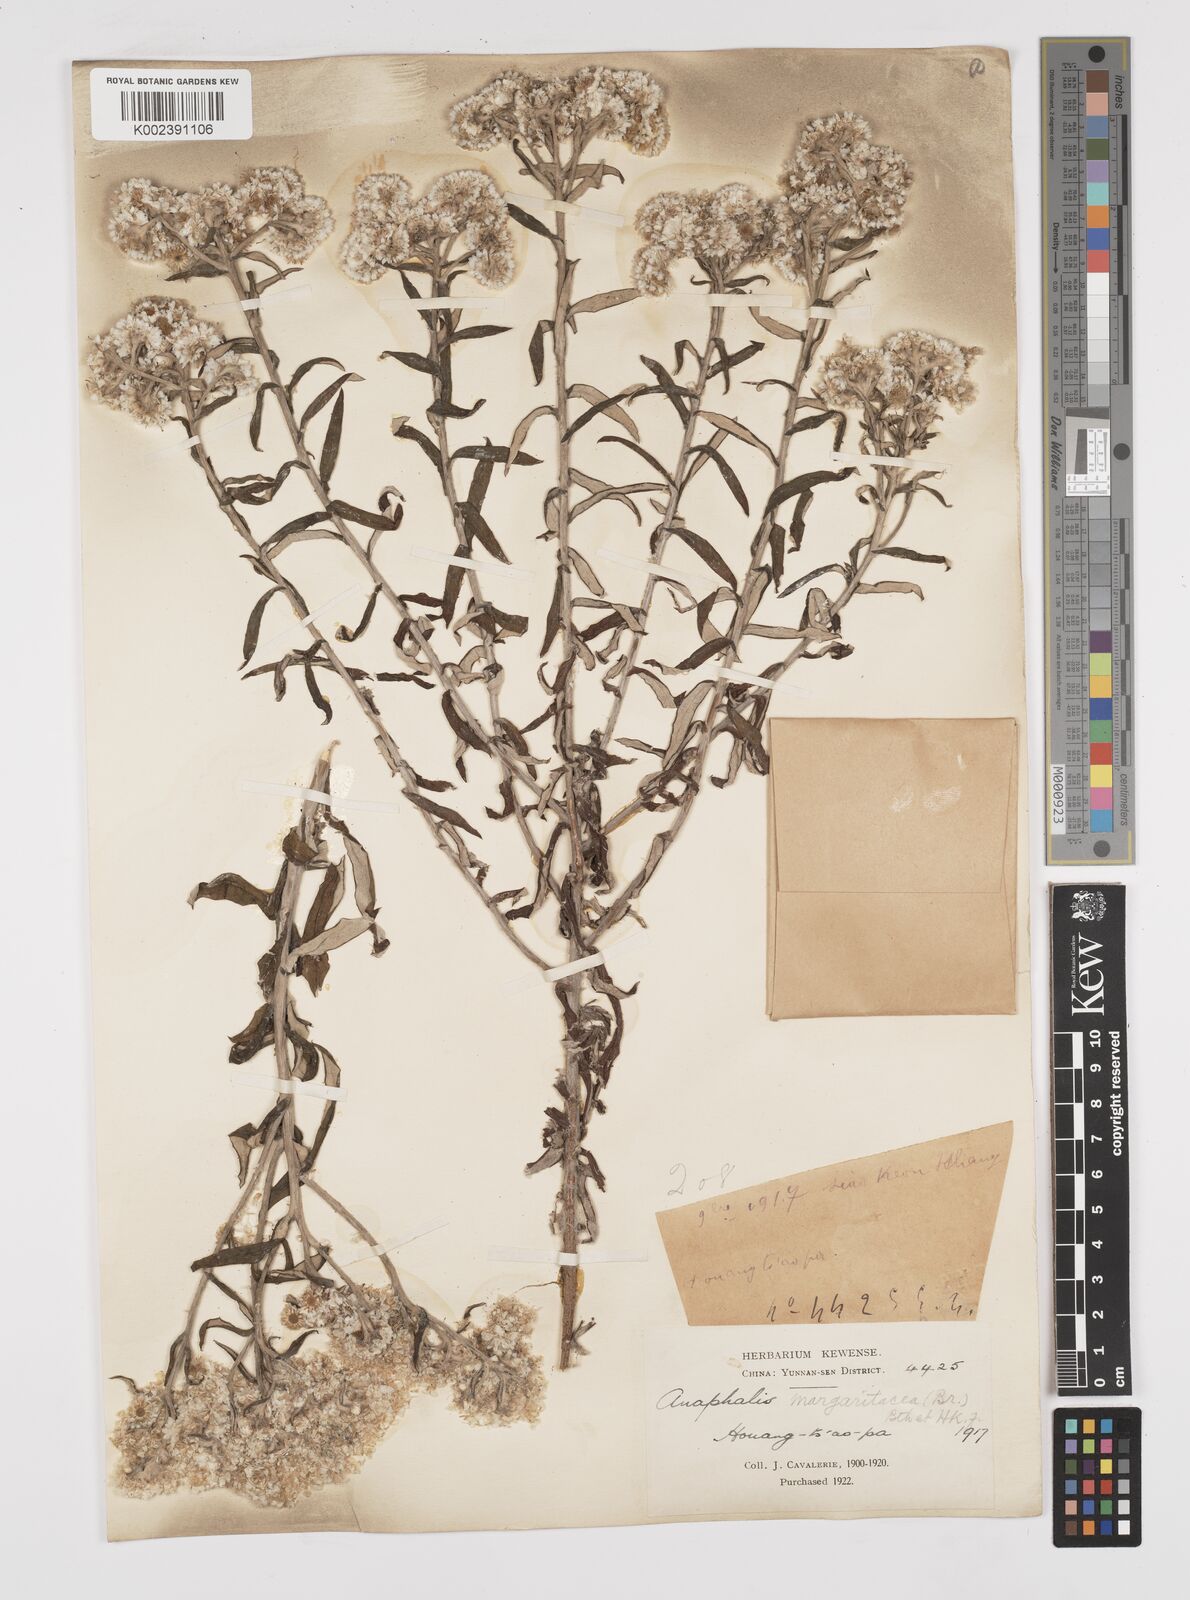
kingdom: Plantae
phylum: Tracheophyta
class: Magnoliopsida
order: Asterales
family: Asteraceae
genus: Anaphalis
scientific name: Anaphalis margaritacea
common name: Pearly everlasting
